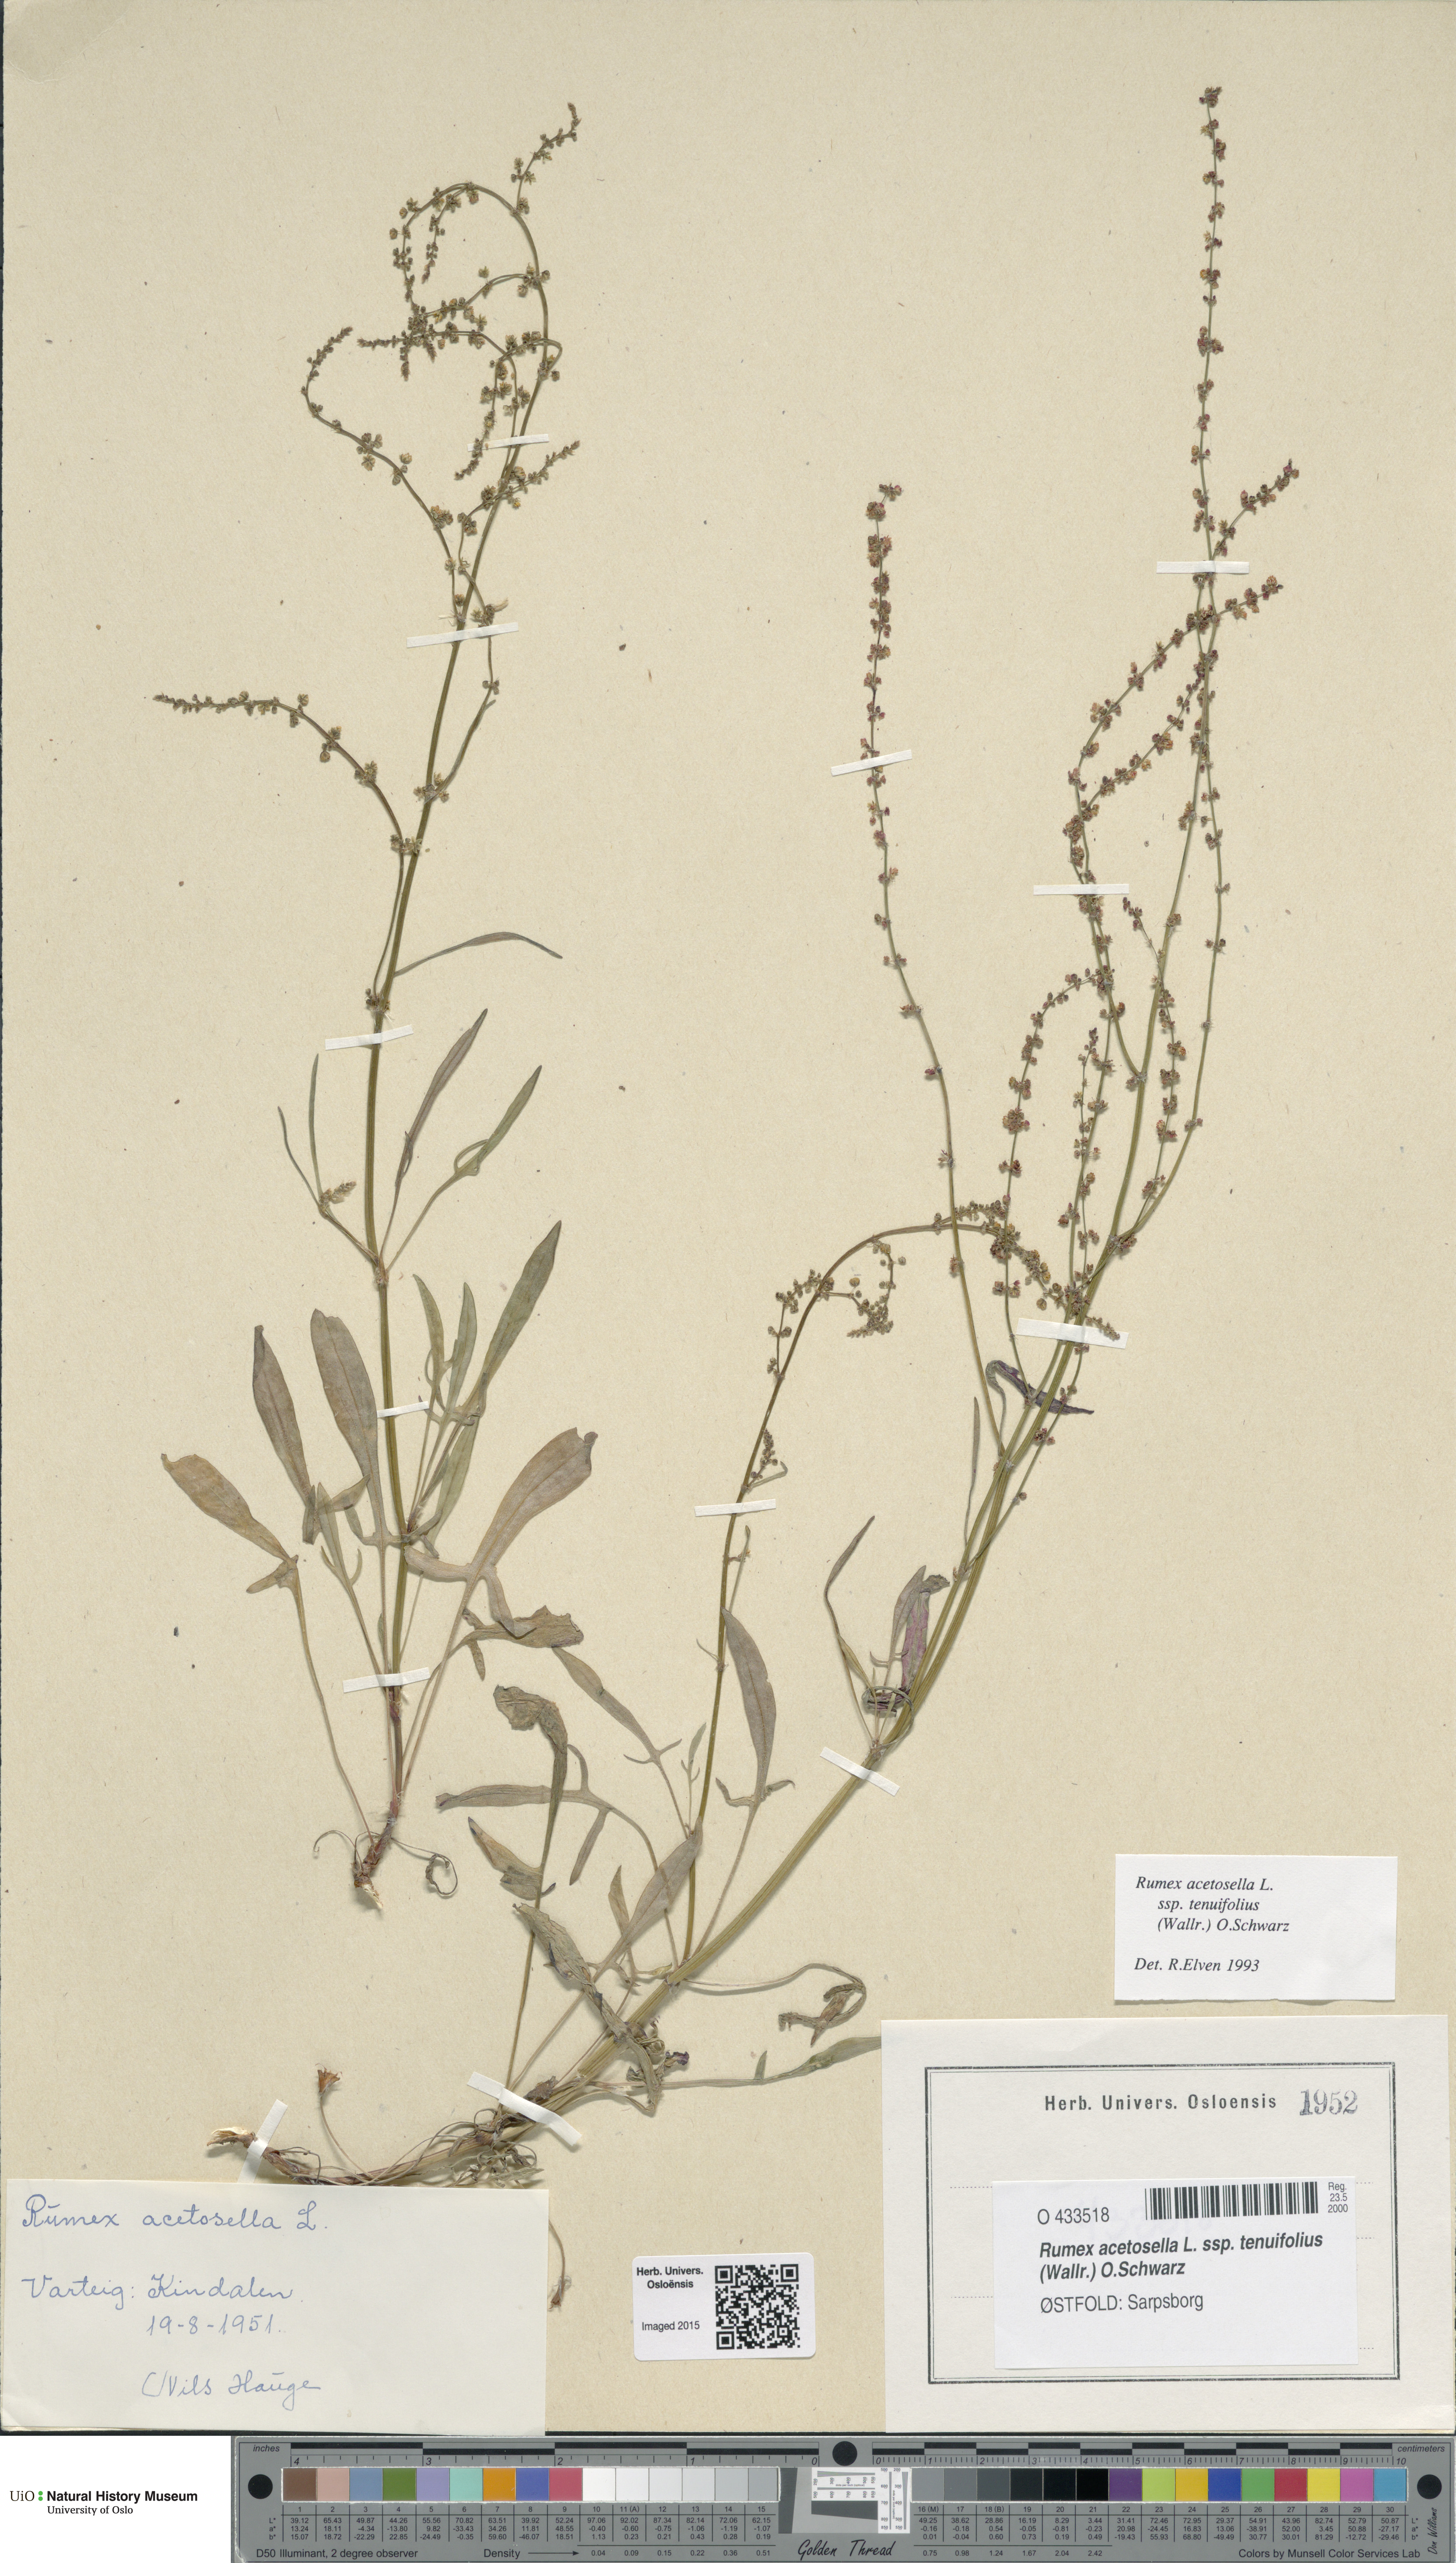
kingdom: Plantae
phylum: Tracheophyta
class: Magnoliopsida
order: Caryophyllales
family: Polygonaceae
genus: Rumex
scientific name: Rumex acetosella
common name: Common sheep sorrel
